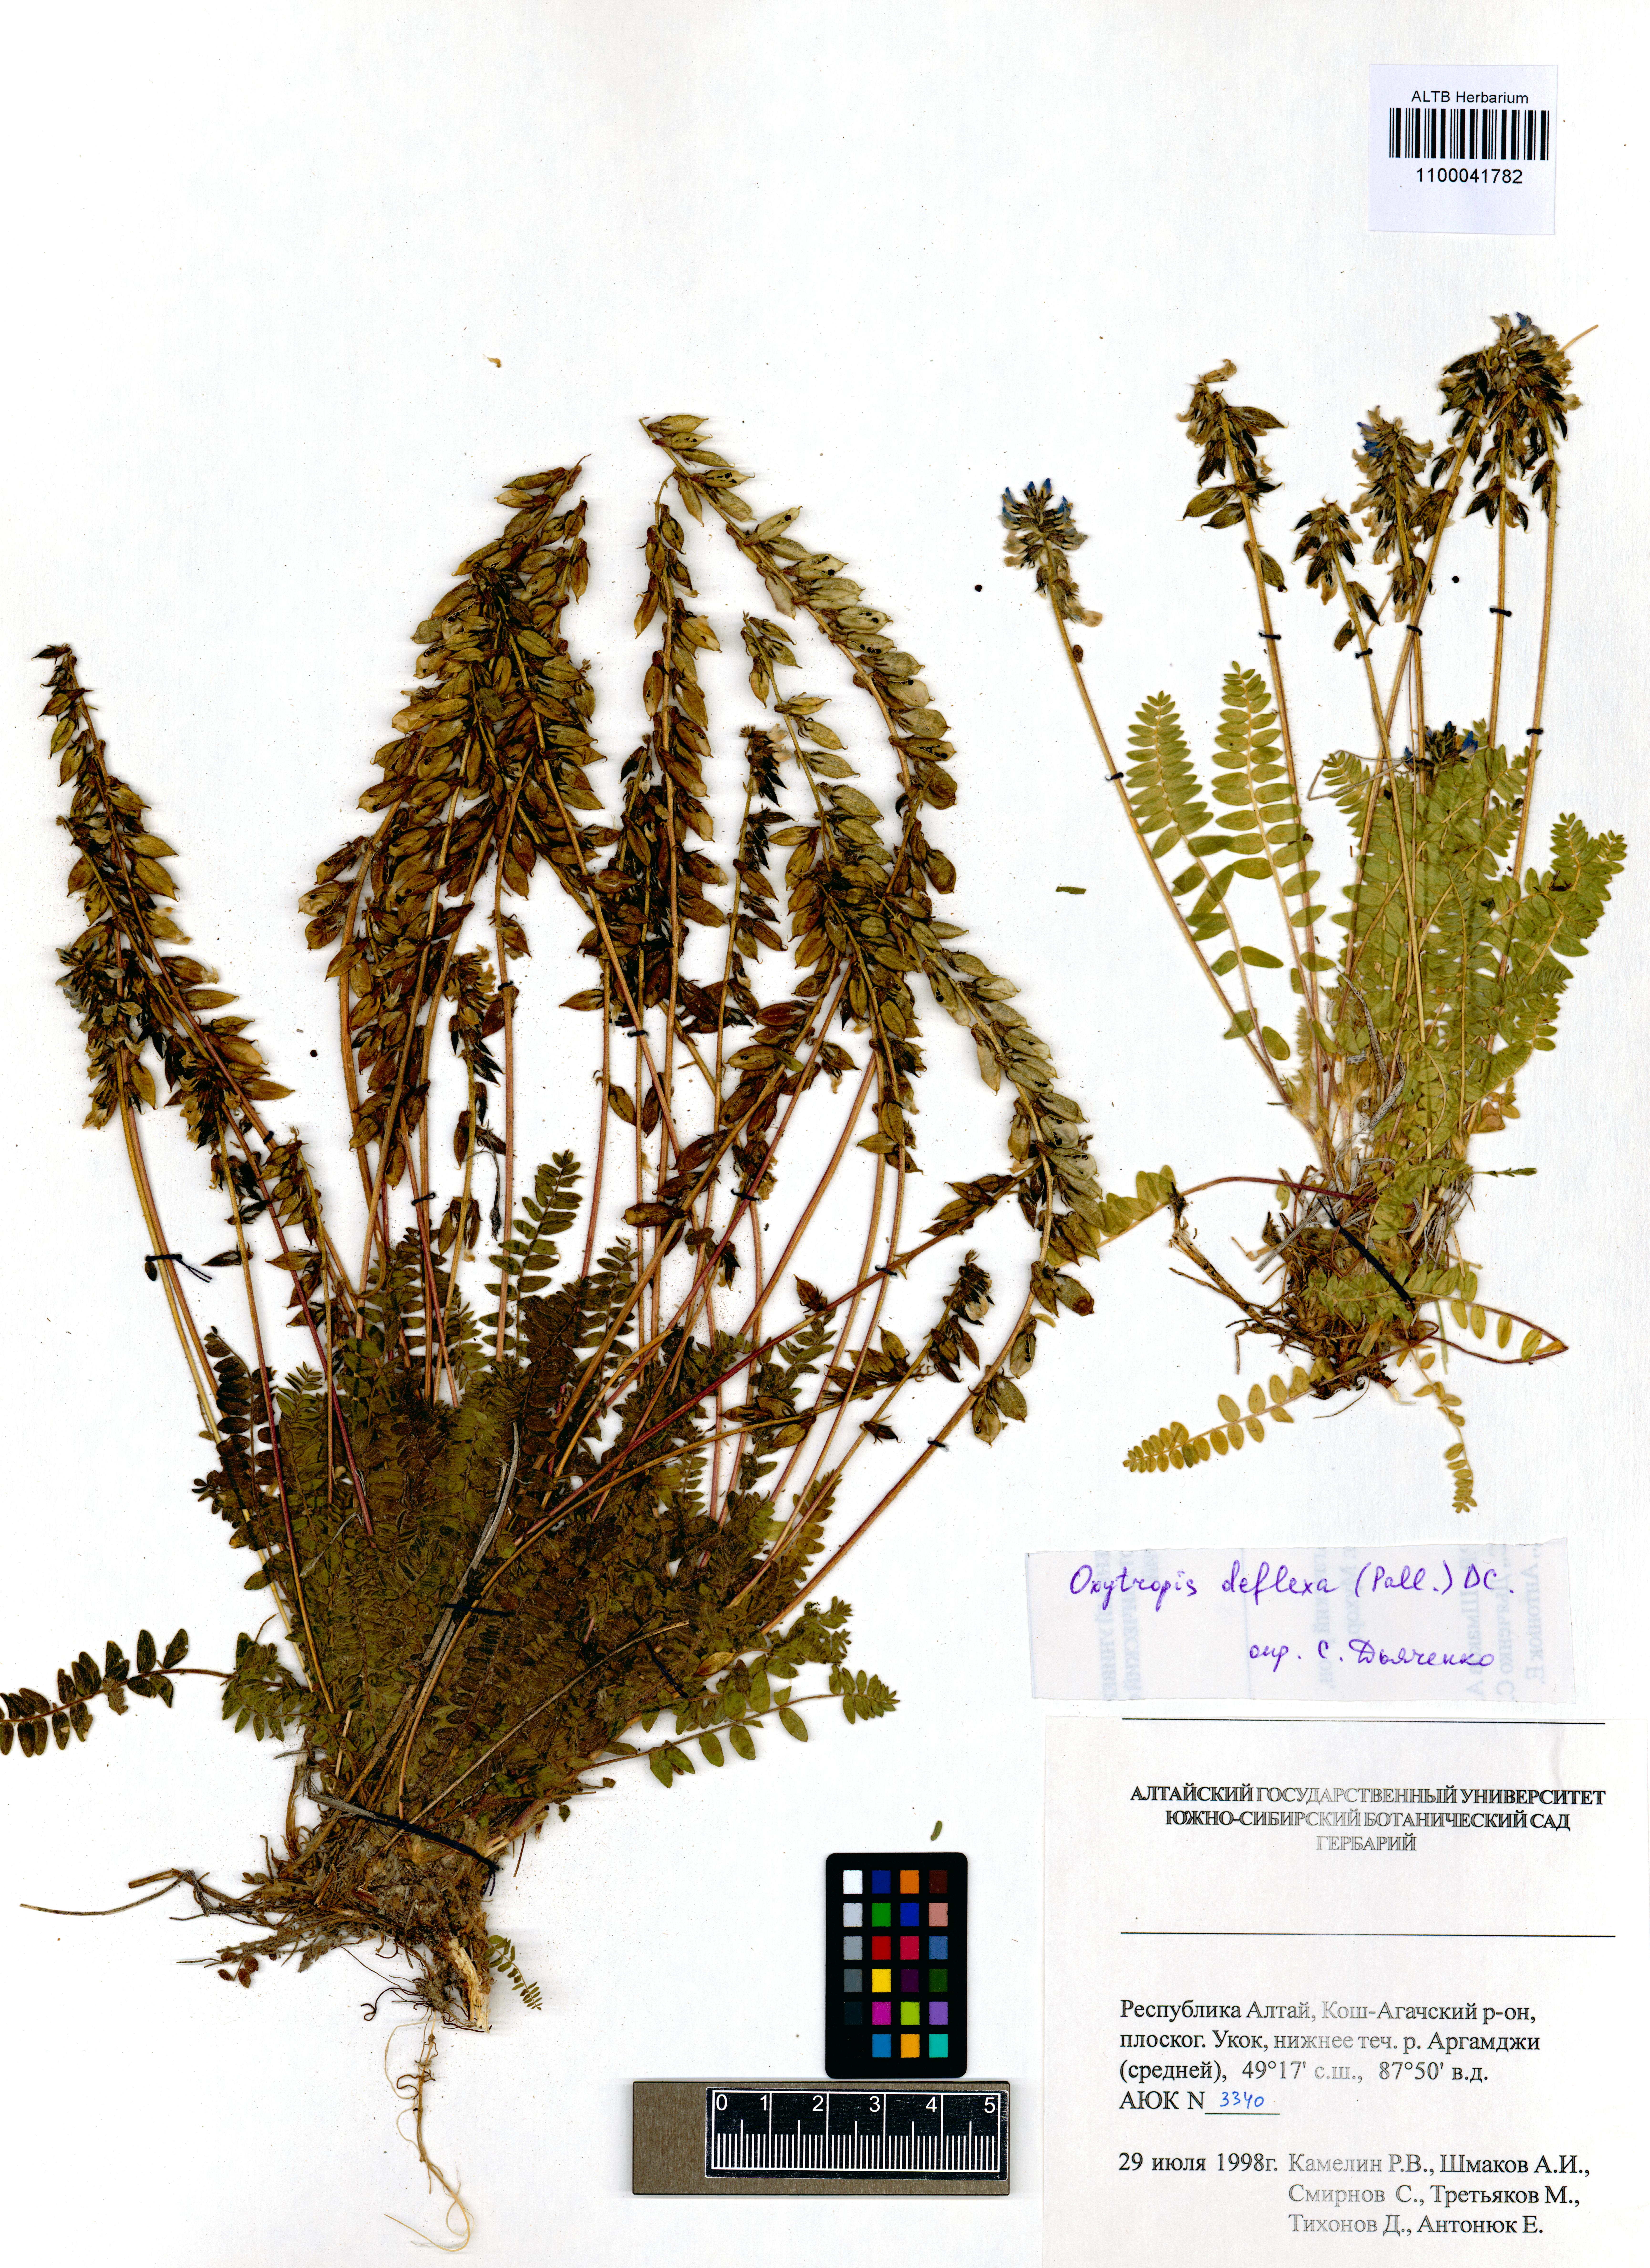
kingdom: Plantae
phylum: Tracheophyta
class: Magnoliopsida
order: Fabales
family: Fabaceae
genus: Oxytropis
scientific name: Oxytropis deflexa
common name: Stemmed oxytrope
